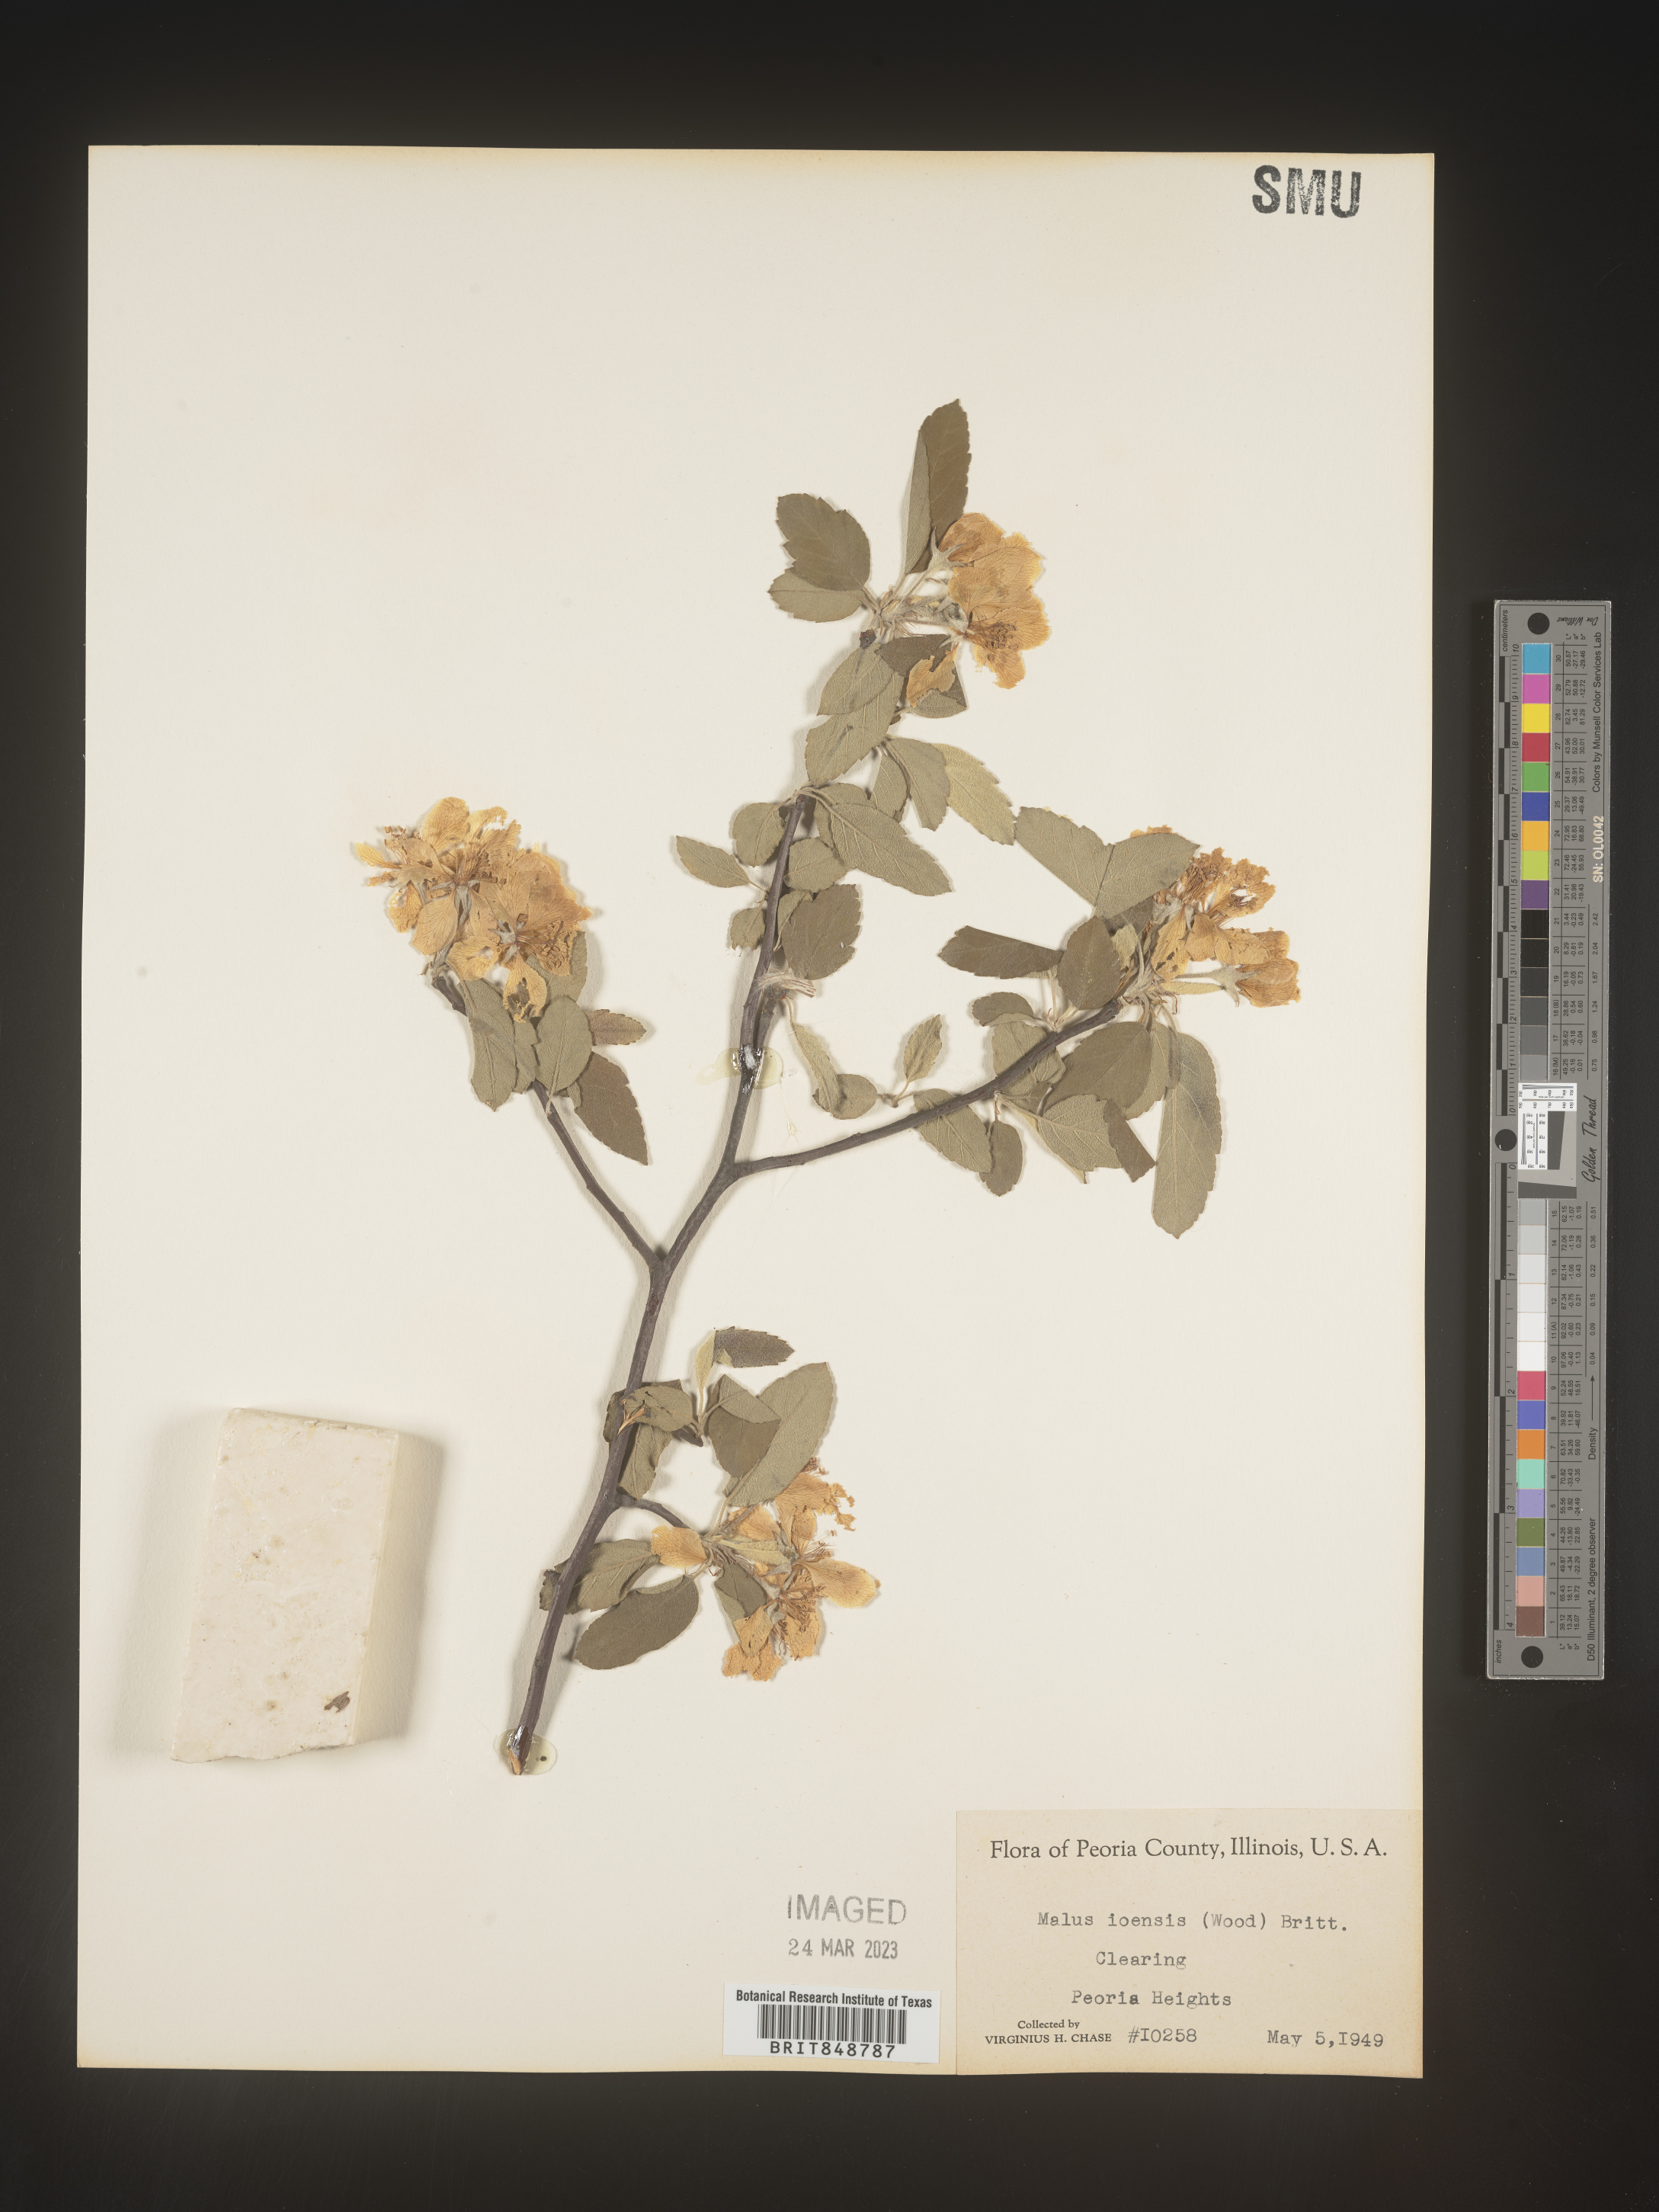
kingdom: Plantae
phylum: Tracheophyta
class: Magnoliopsida
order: Rosales
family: Rosaceae
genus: Malus
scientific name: Malus ioensis
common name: Iowa crab apple
